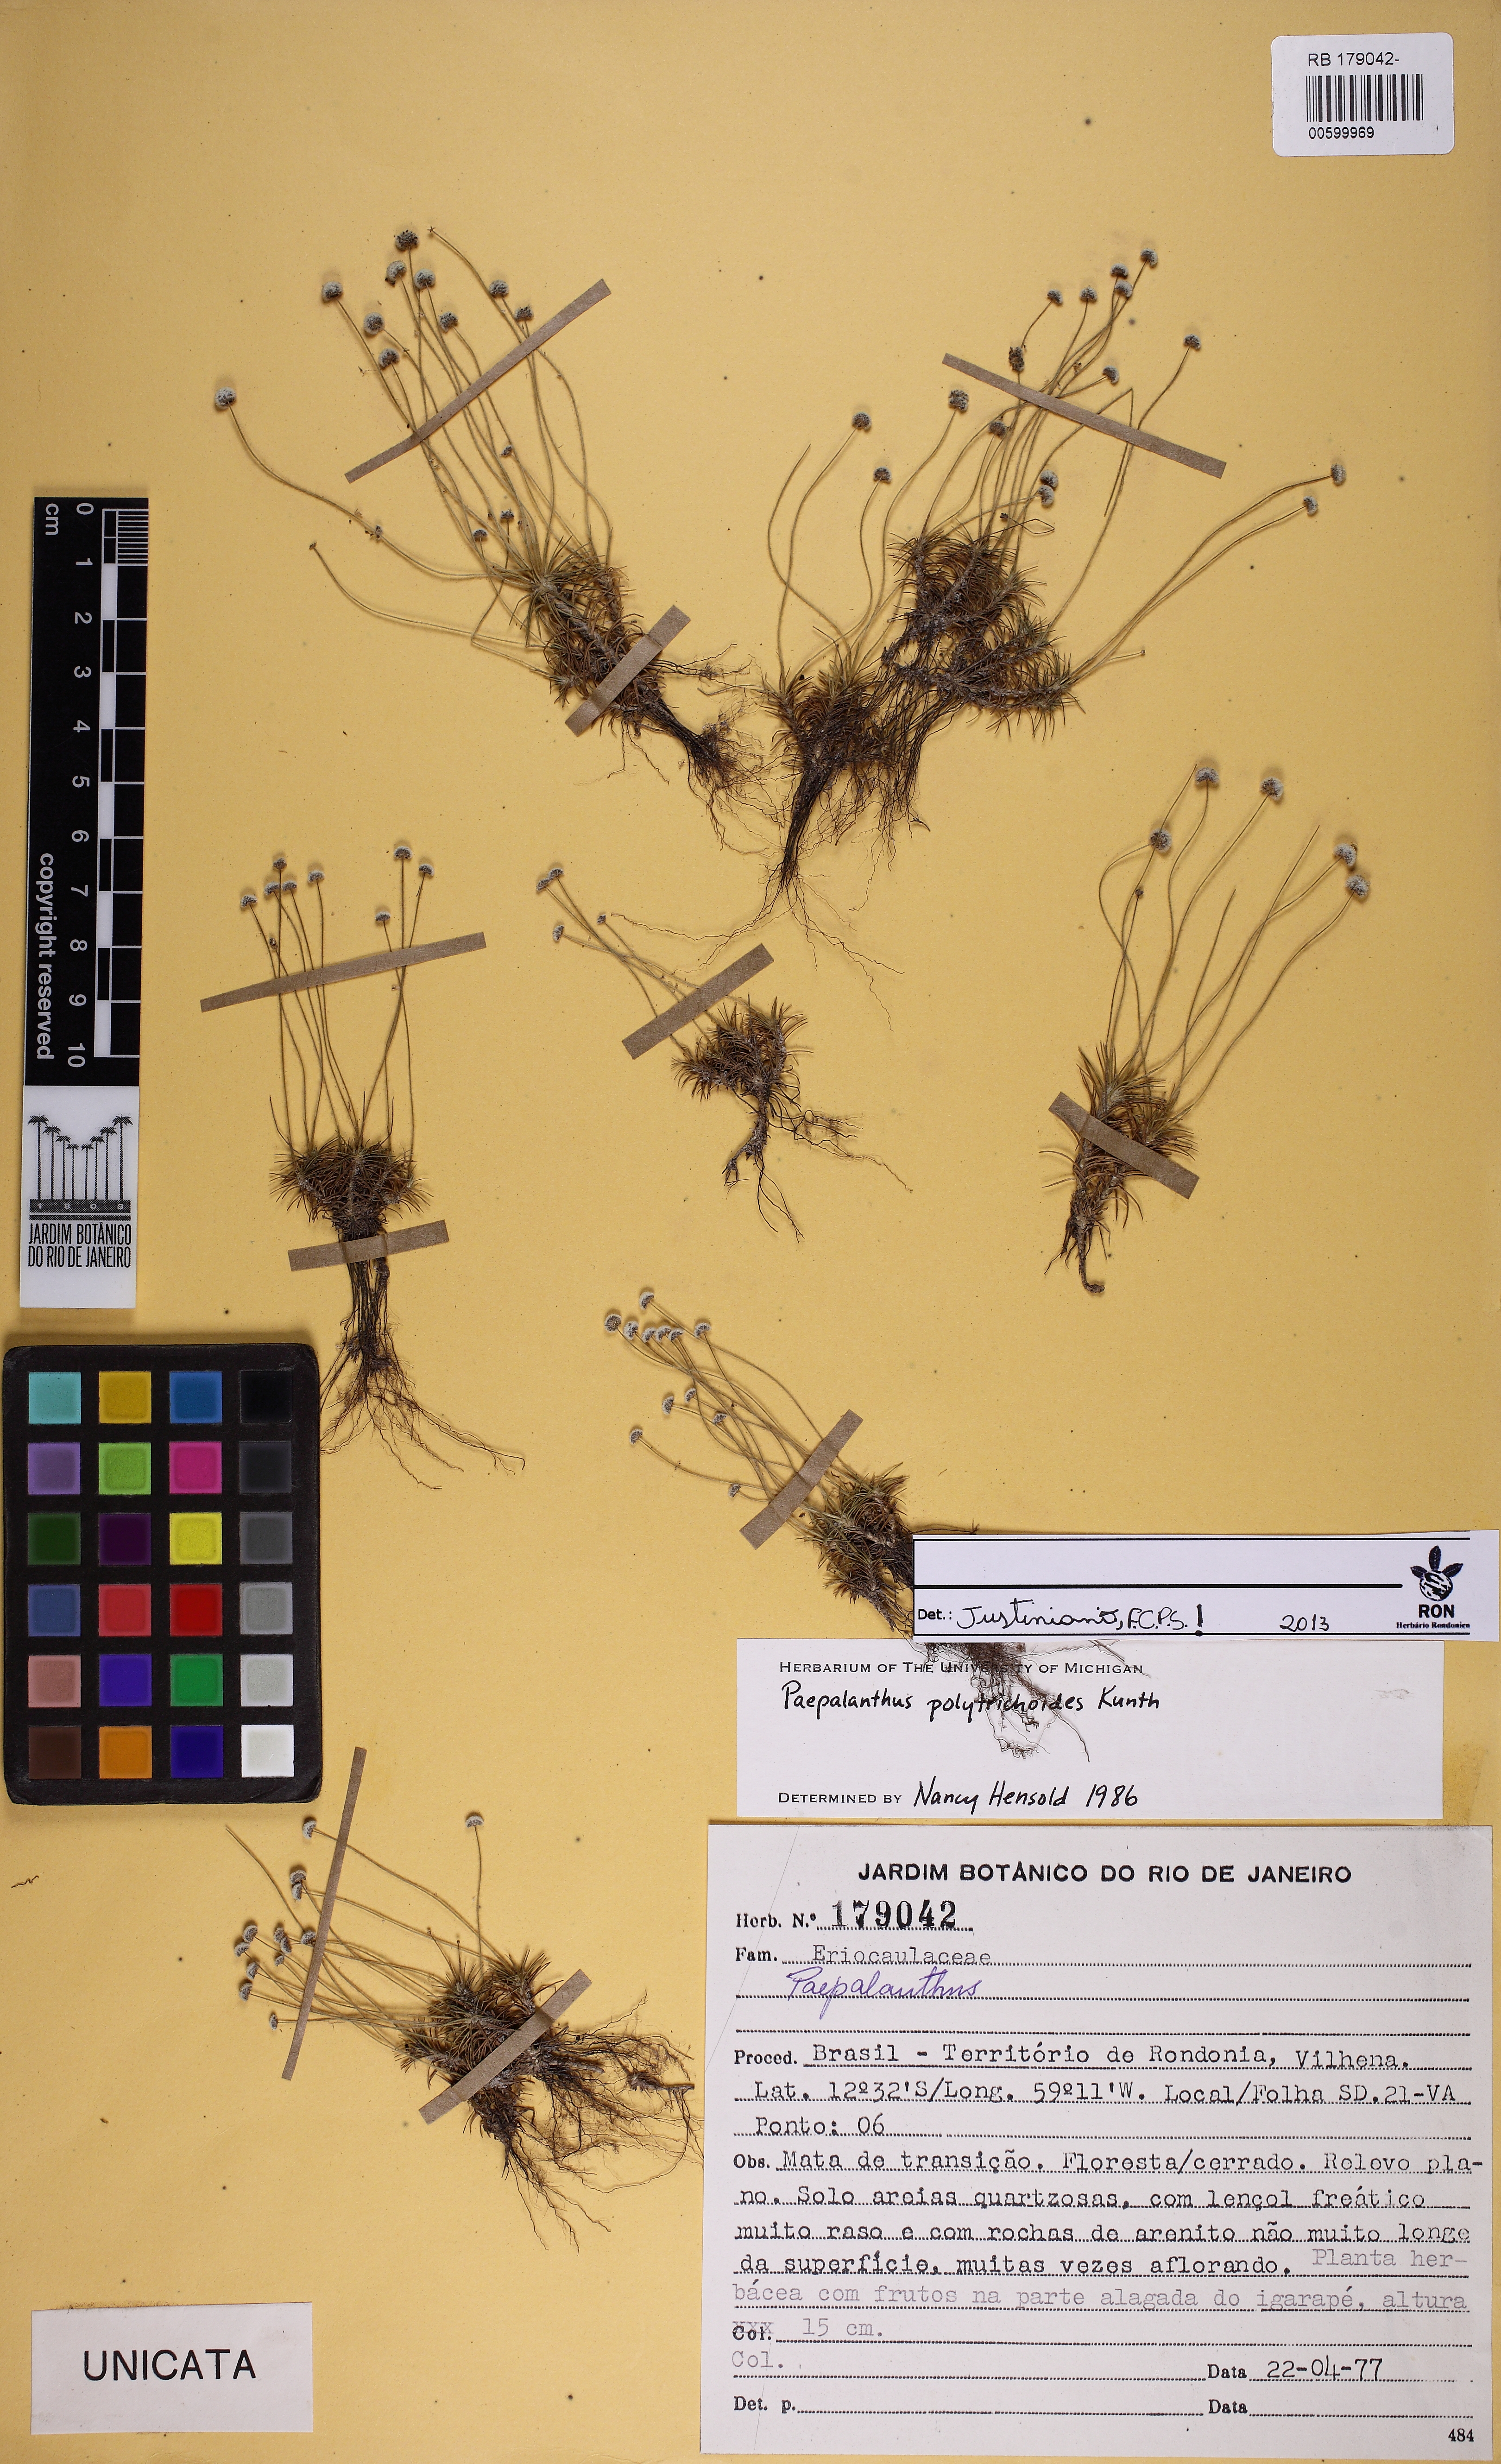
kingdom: Plantae
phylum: Tracheophyta
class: Liliopsida
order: Poales
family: Eriocaulaceae
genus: Paepalanthus
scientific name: Paepalanthus polytrichoides
